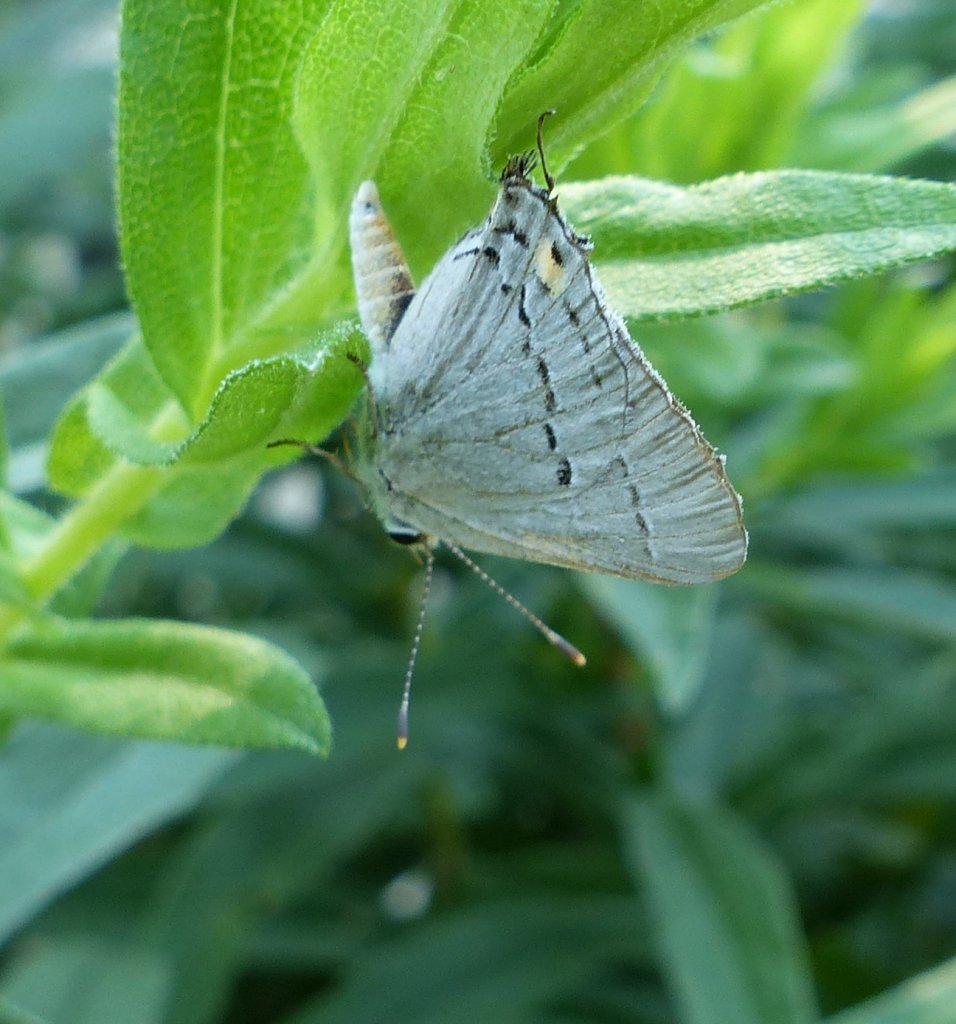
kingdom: Animalia
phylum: Arthropoda
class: Insecta
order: Lepidoptera
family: Lycaenidae
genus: Strymon
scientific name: Strymon melinus
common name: Gray Hairstreak
